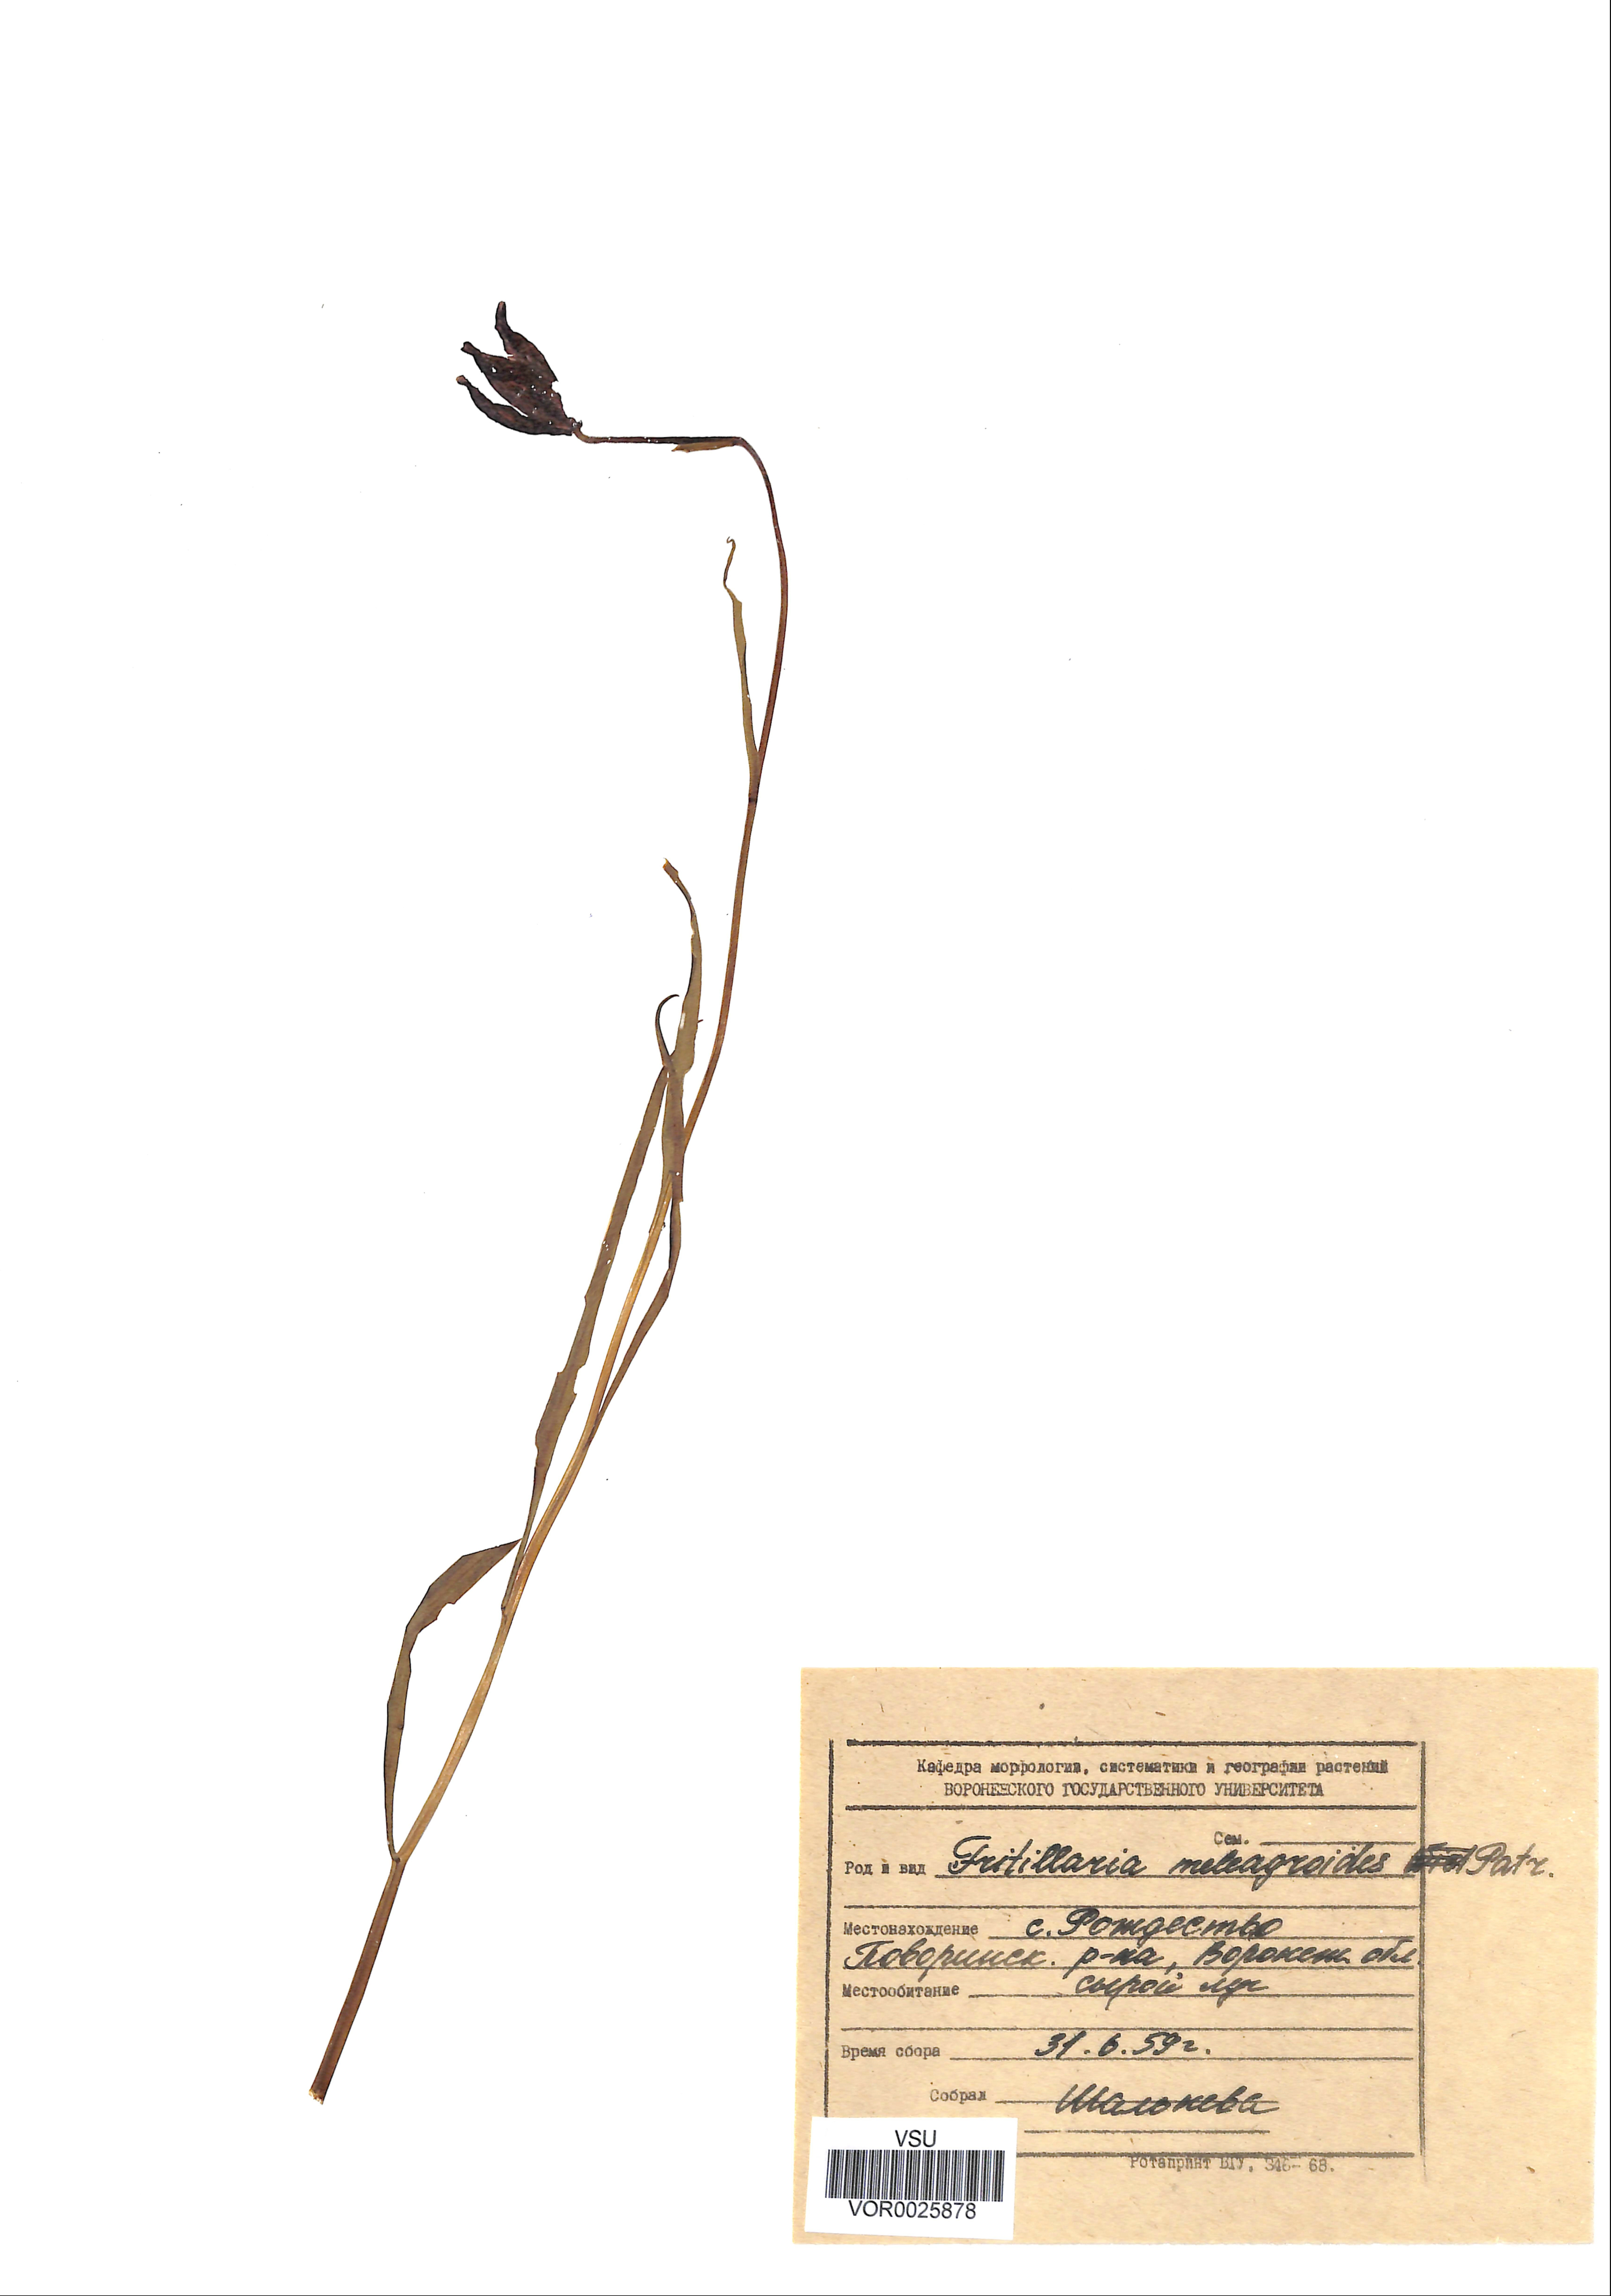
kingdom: Plantae
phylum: Tracheophyta
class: Liliopsida
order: Liliales
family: Liliaceae
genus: Fritillaria
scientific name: Fritillaria meleagroides
